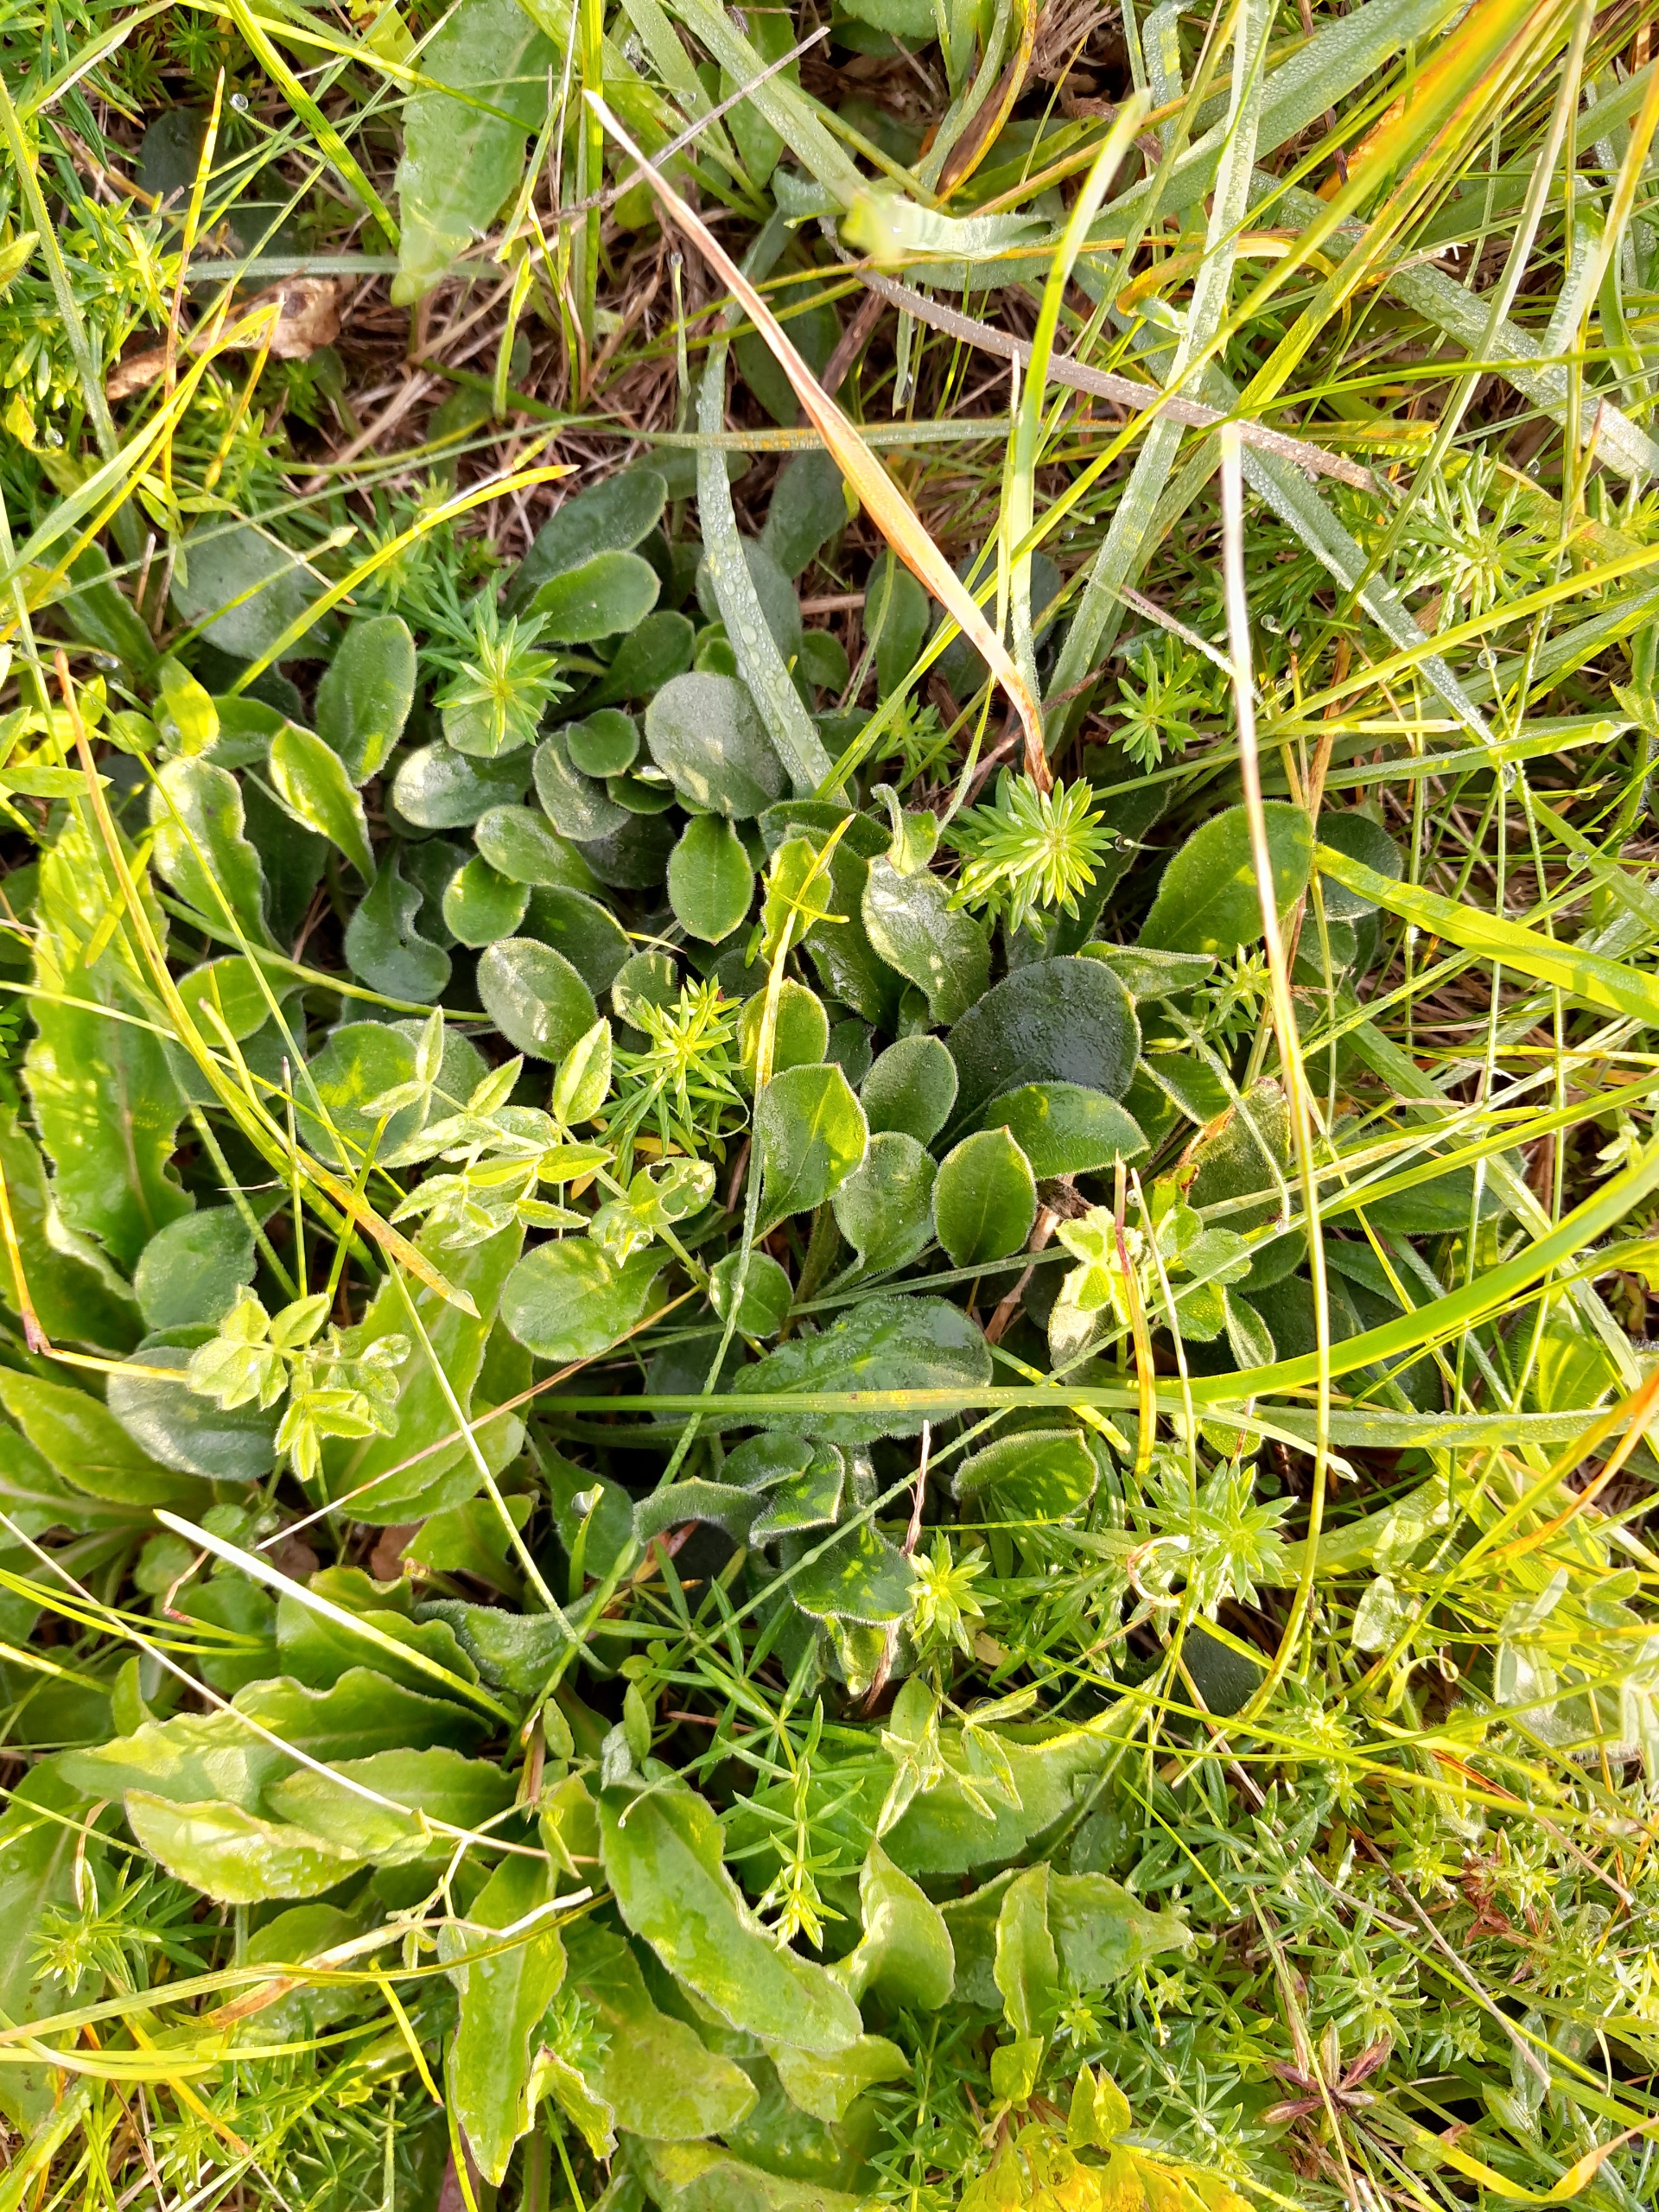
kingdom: Plantae
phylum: Tracheophyta
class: Magnoliopsida
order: Caryophyllales
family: Caryophyllaceae
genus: Silene
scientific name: Silene nutans
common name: Nikkende limurt
